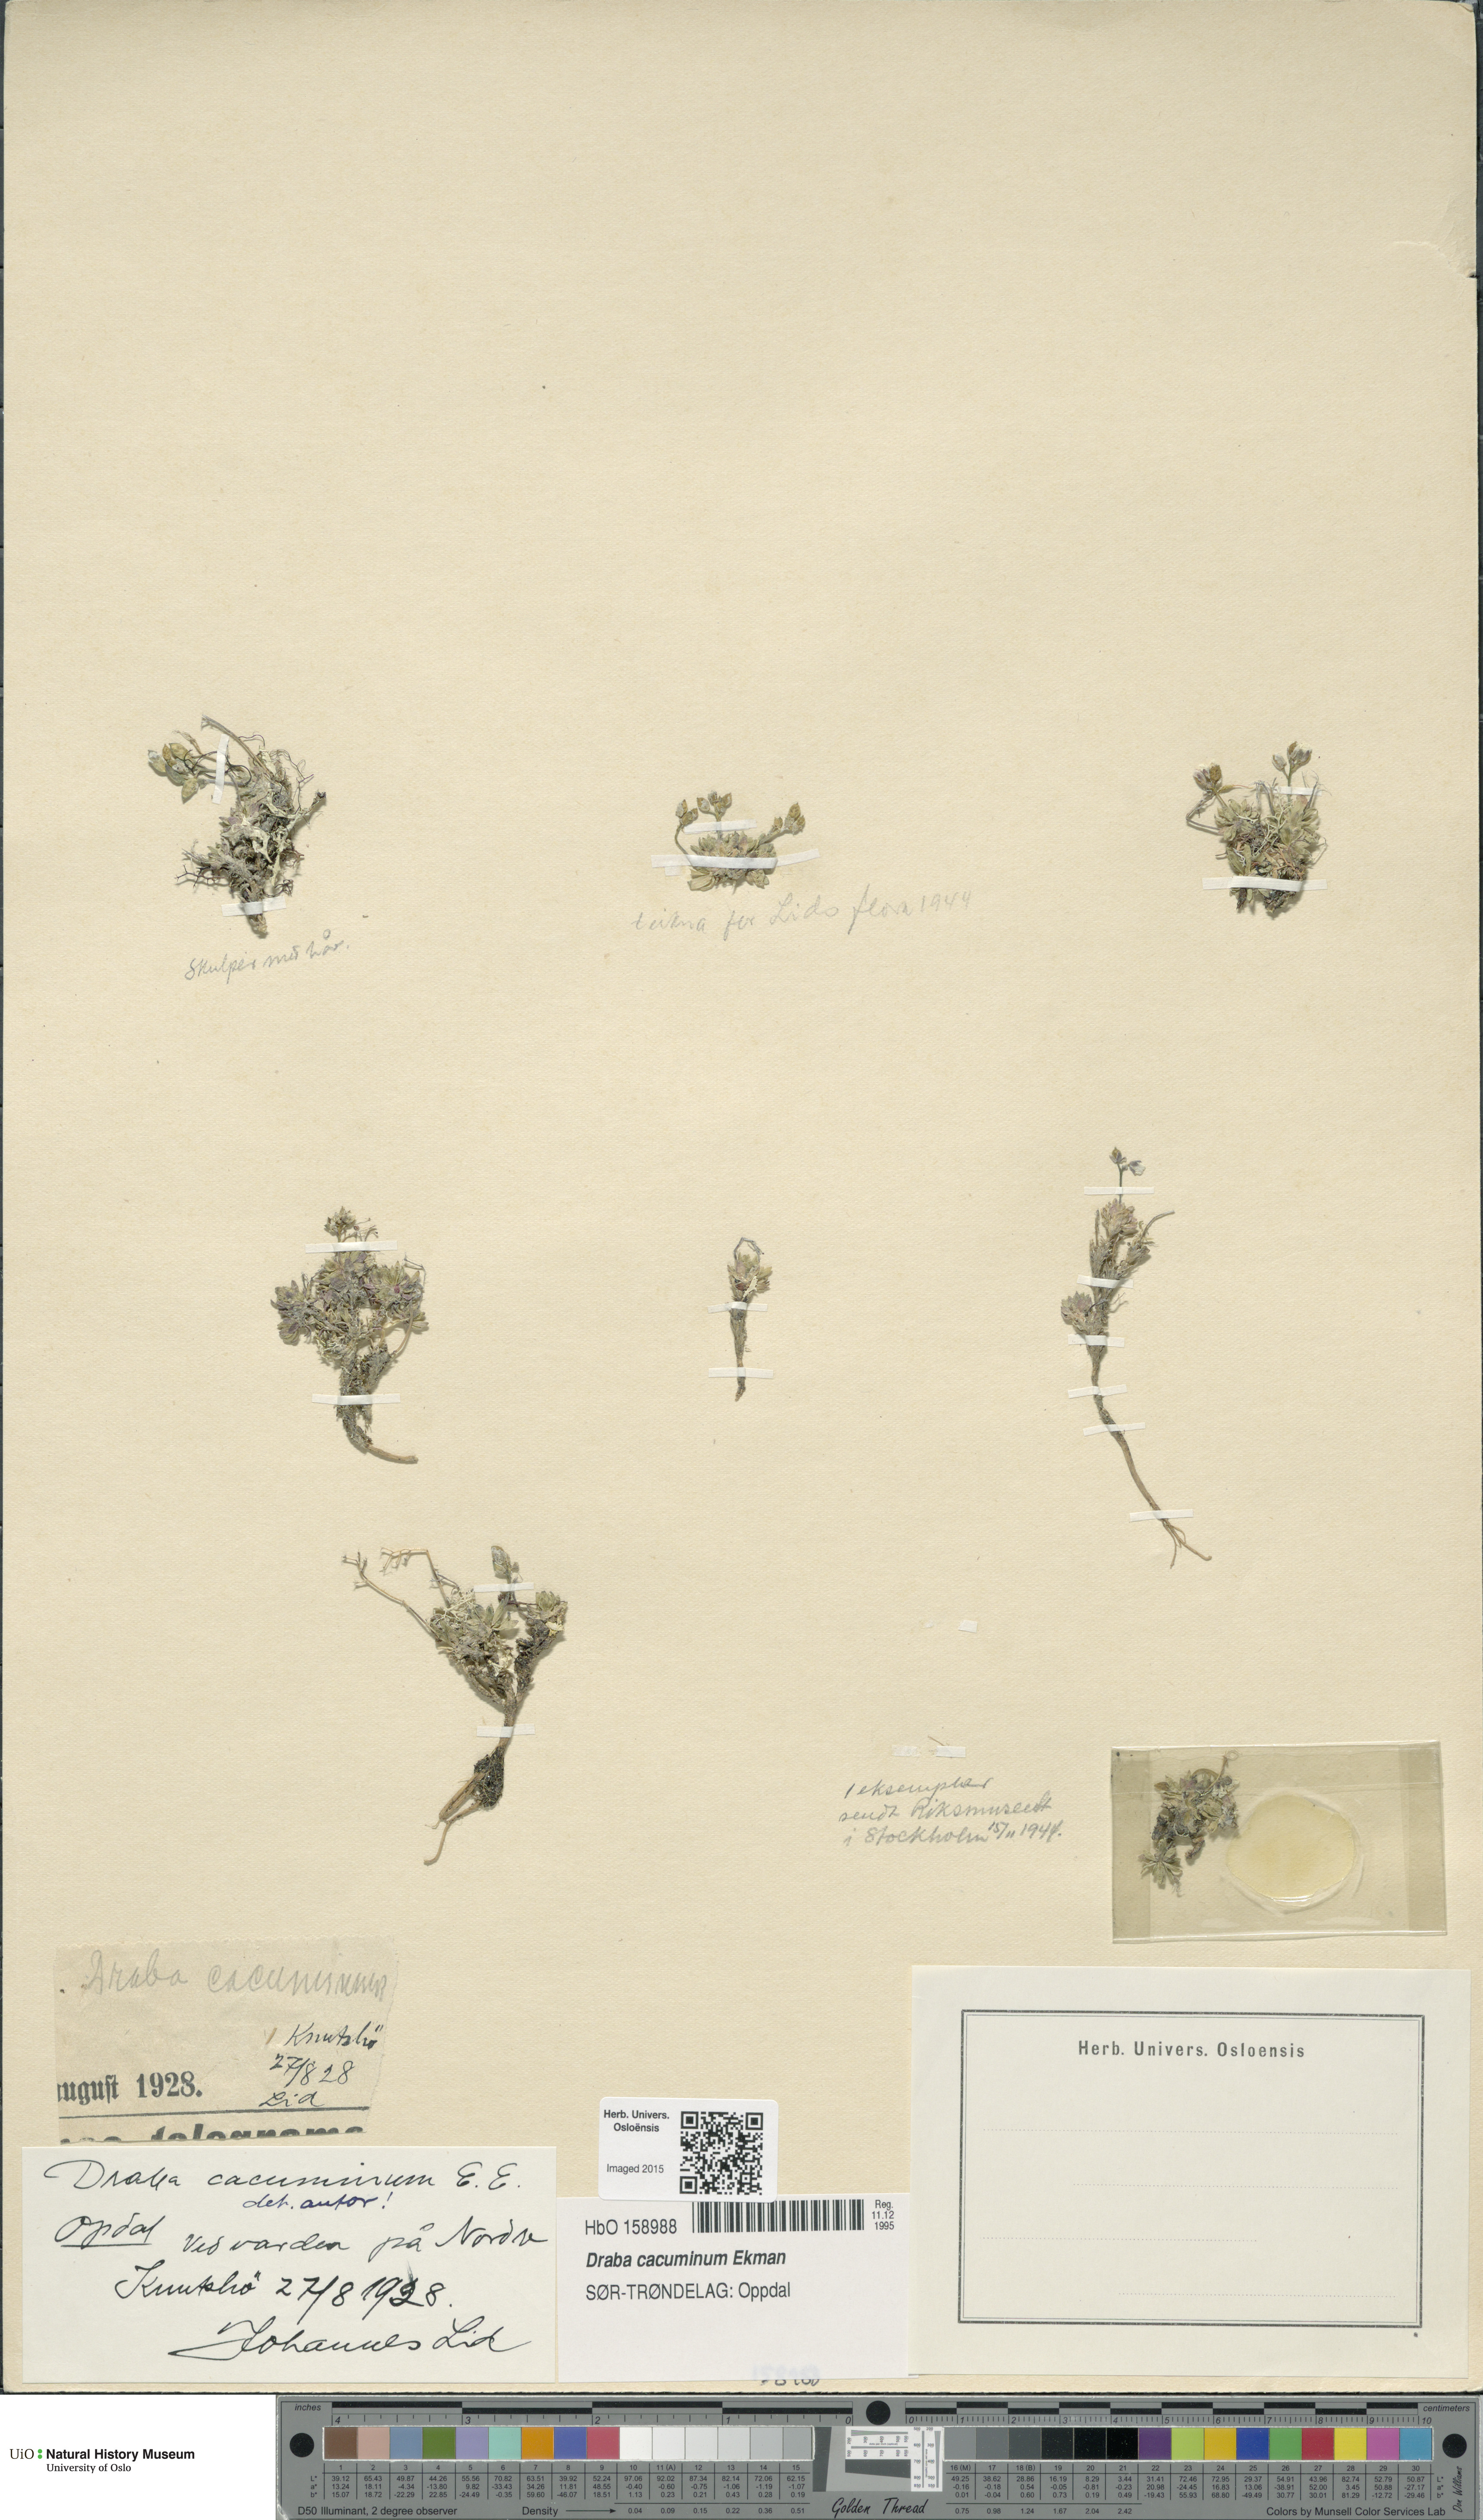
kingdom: Plantae
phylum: Tracheophyta
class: Magnoliopsida
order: Brassicales
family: Brassicaceae
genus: Draba
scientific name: Draba cacuminum
